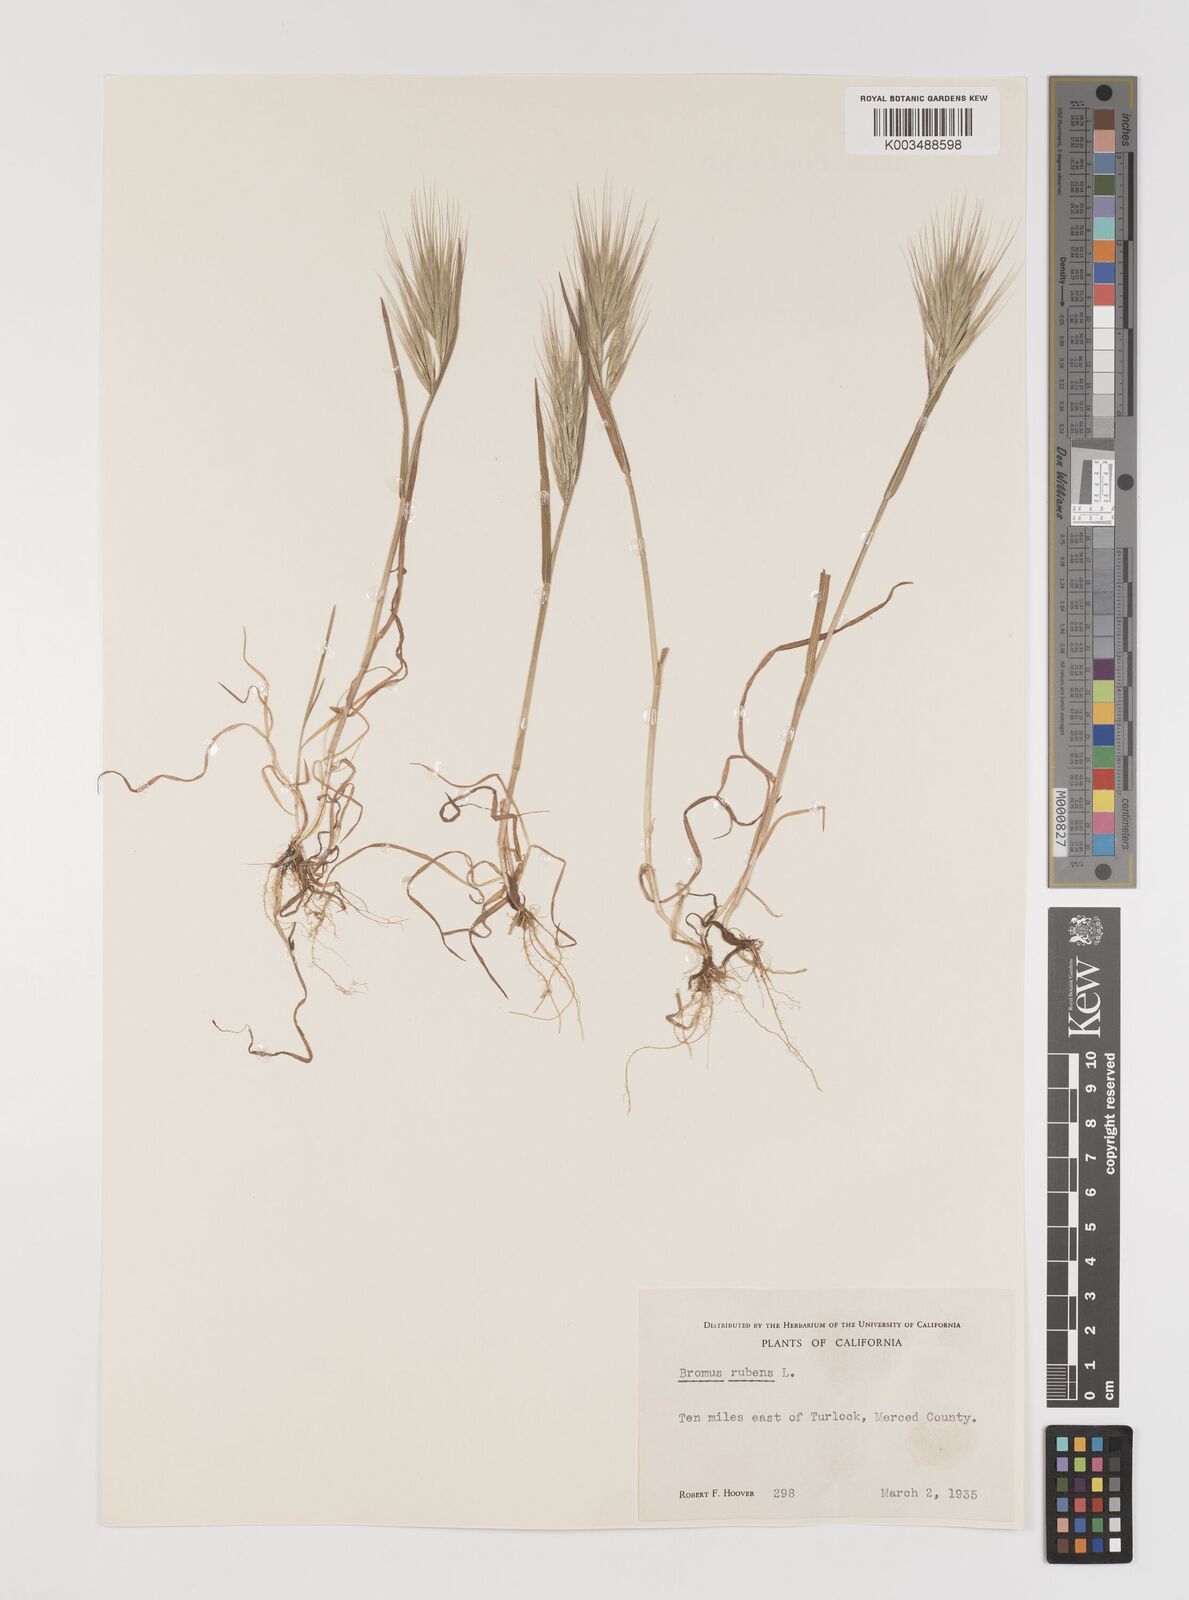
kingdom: Plantae
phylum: Tracheophyta
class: Liliopsida
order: Poales
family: Poaceae
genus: Bromus
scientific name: Bromus rubens
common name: Red brome
